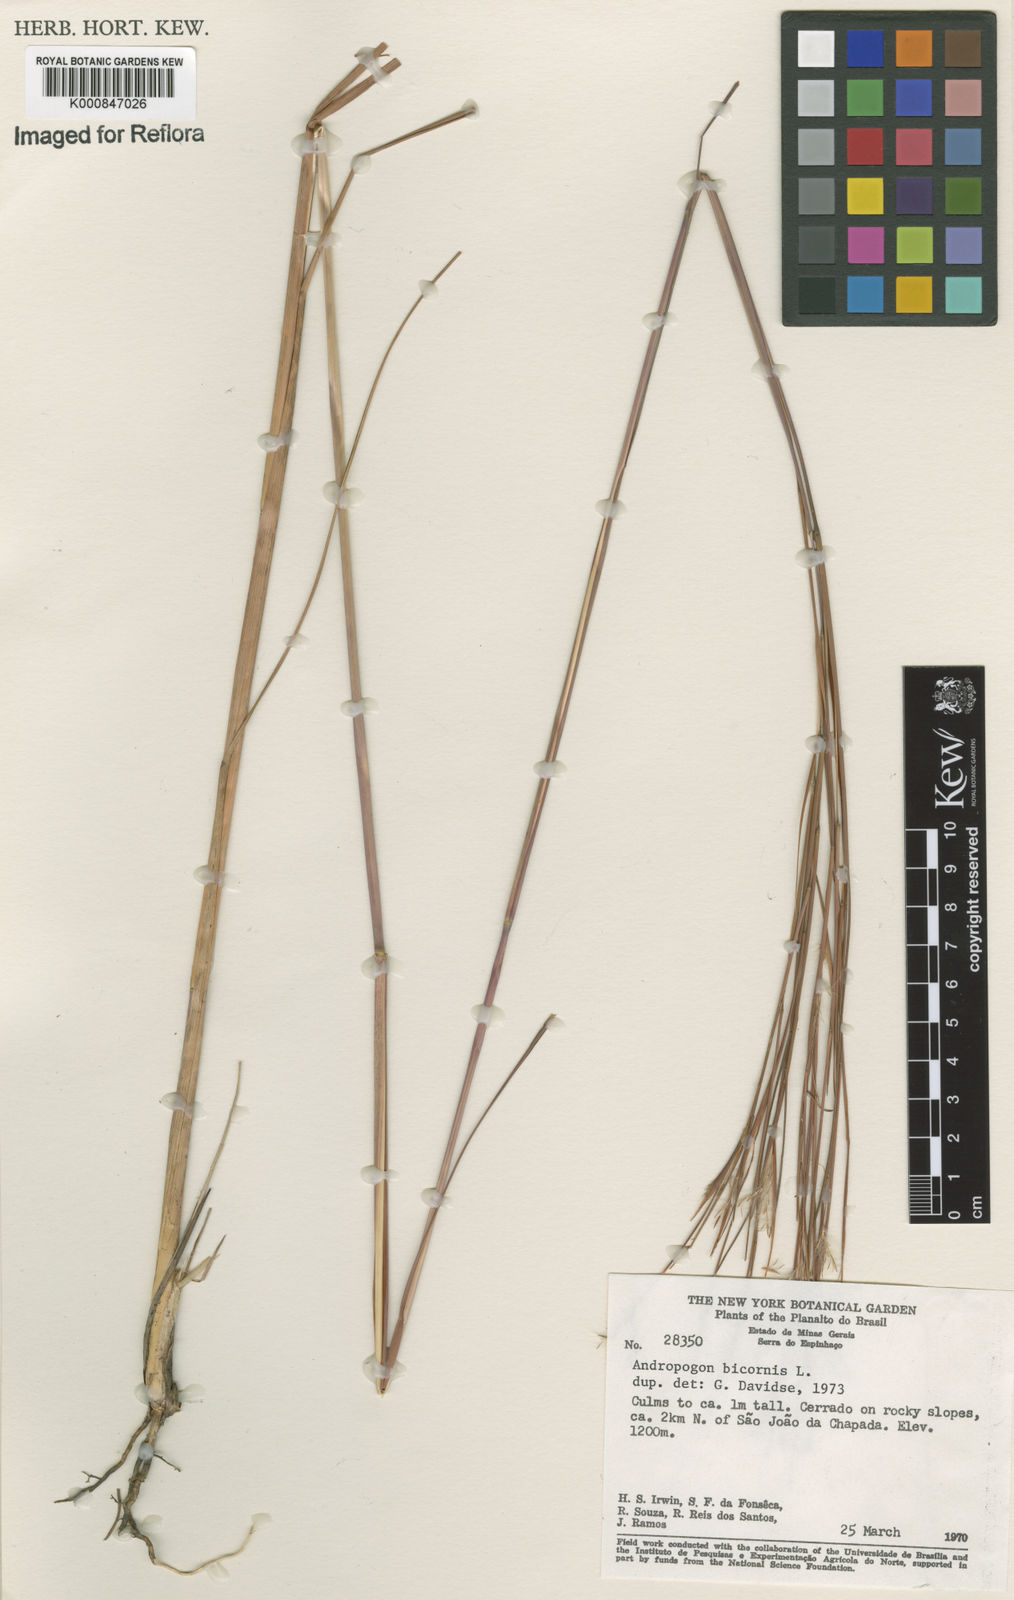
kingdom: Plantae
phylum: Tracheophyta
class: Liliopsida
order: Poales
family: Poaceae
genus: Andropogon
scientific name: Andropogon bicornis
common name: West indian foxtail grass
